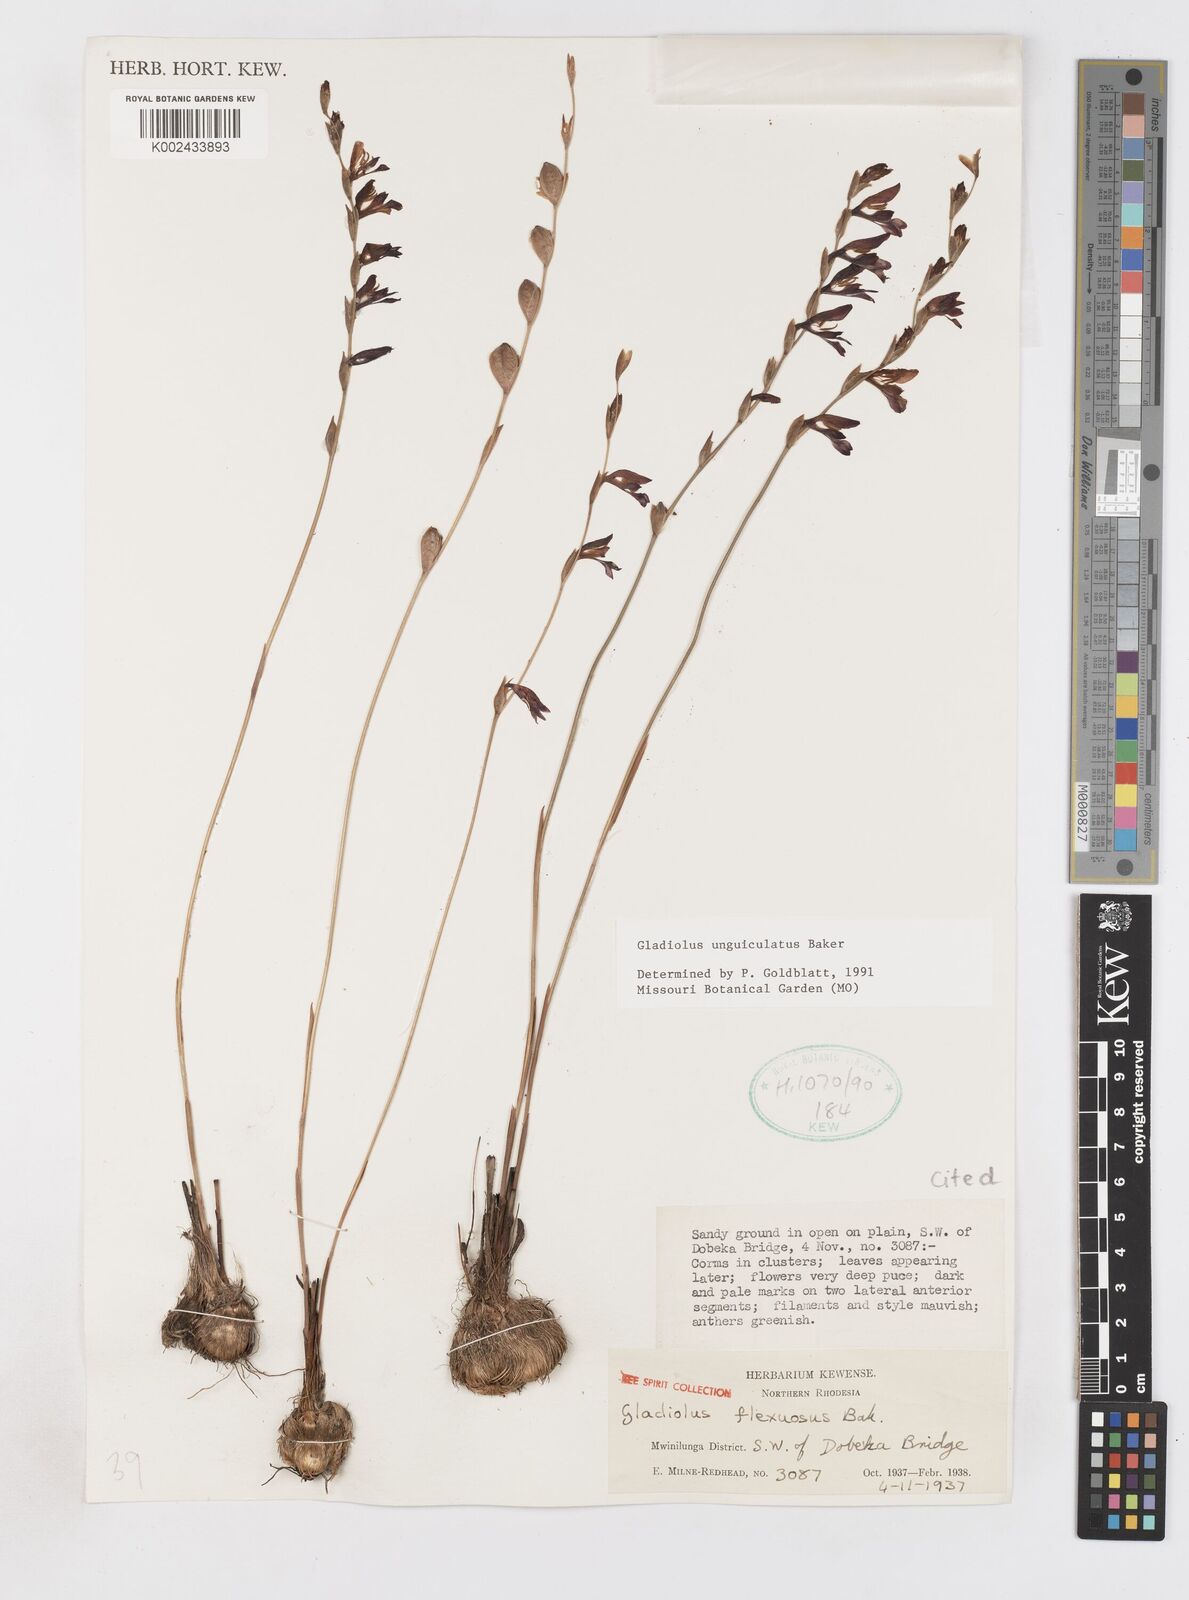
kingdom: Plantae
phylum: Tracheophyta
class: Liliopsida
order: Asparagales
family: Iridaceae
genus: Gladiolus
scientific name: Gladiolus unguiculatus
